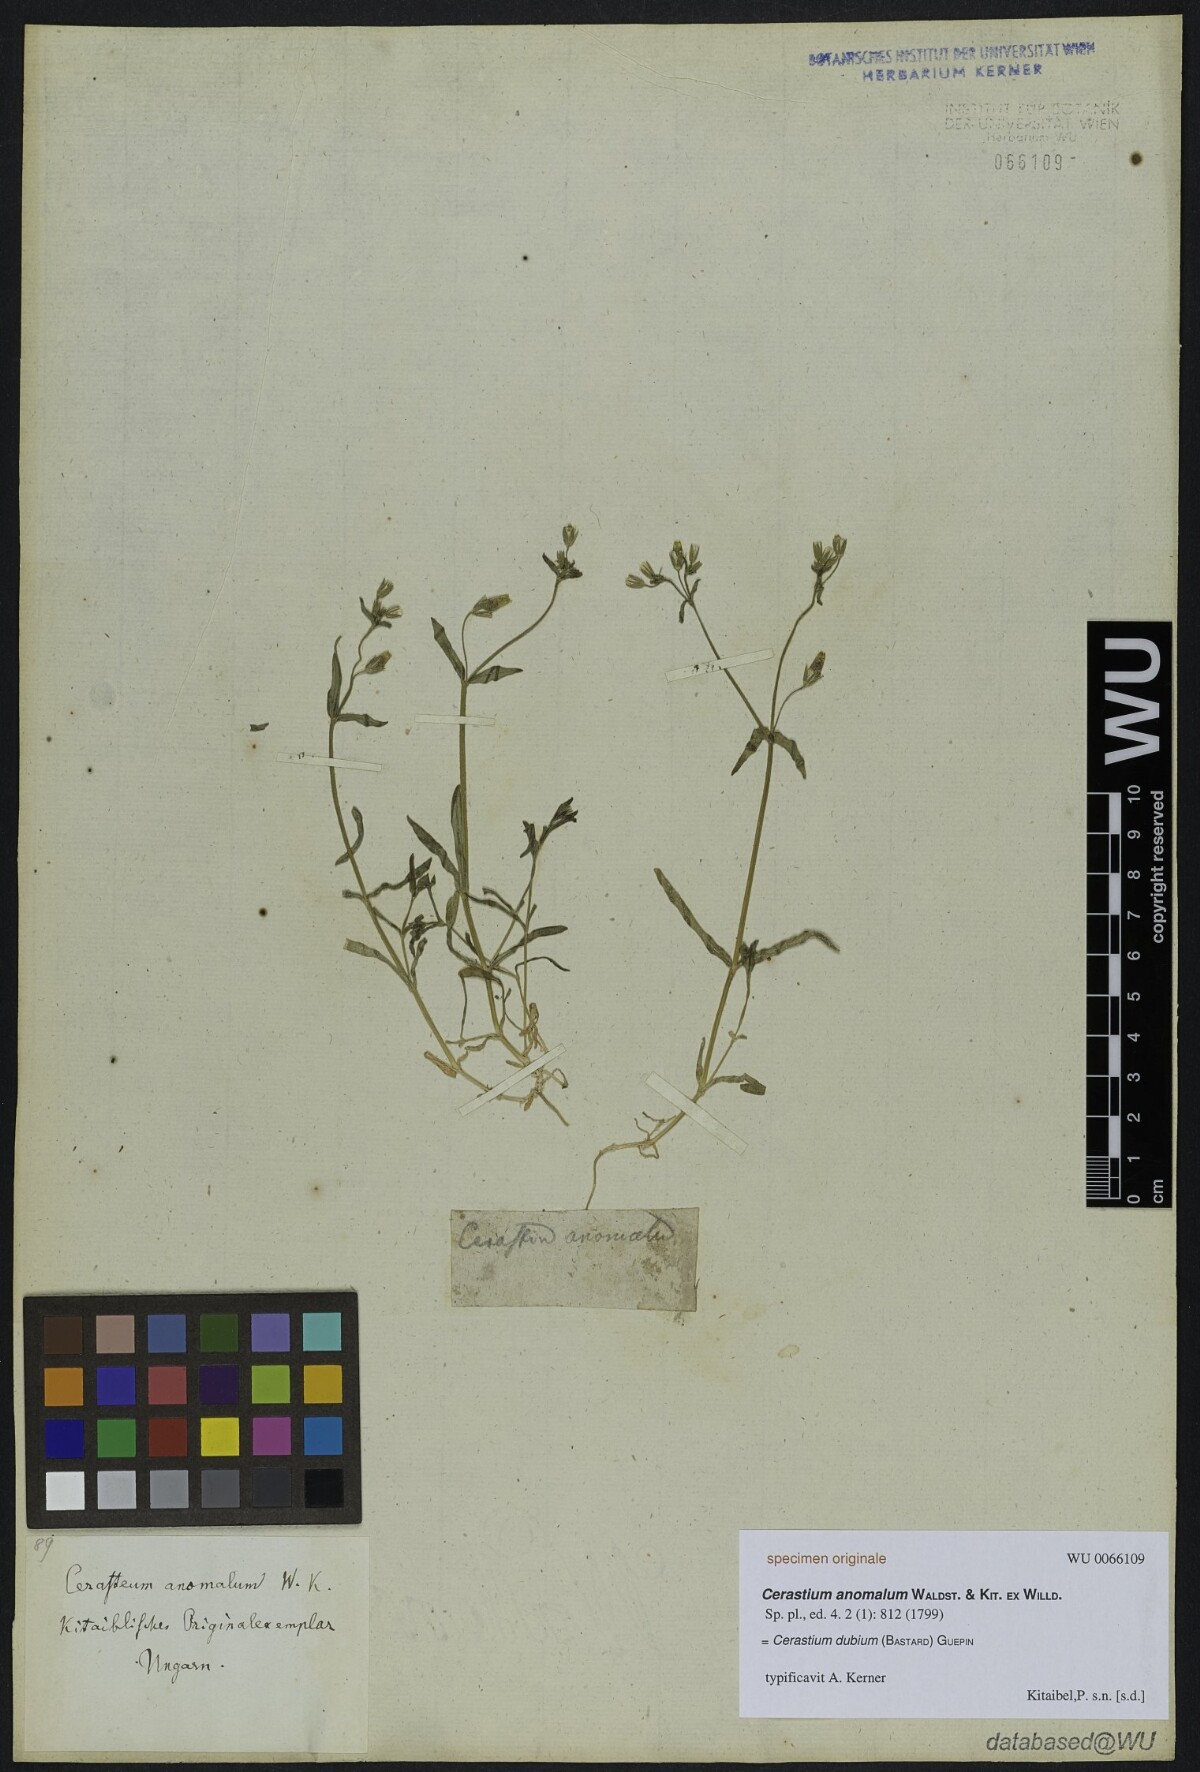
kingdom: Plantae
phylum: Tracheophyta
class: Magnoliopsida
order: Caryophyllales
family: Caryophyllaceae
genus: Dichodon
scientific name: Dichodon viscidum
